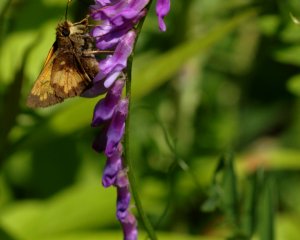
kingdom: Animalia
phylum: Arthropoda
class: Insecta
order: Lepidoptera
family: Hesperiidae
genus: Lon
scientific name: Lon hobomok
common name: Hobomok Skipper
